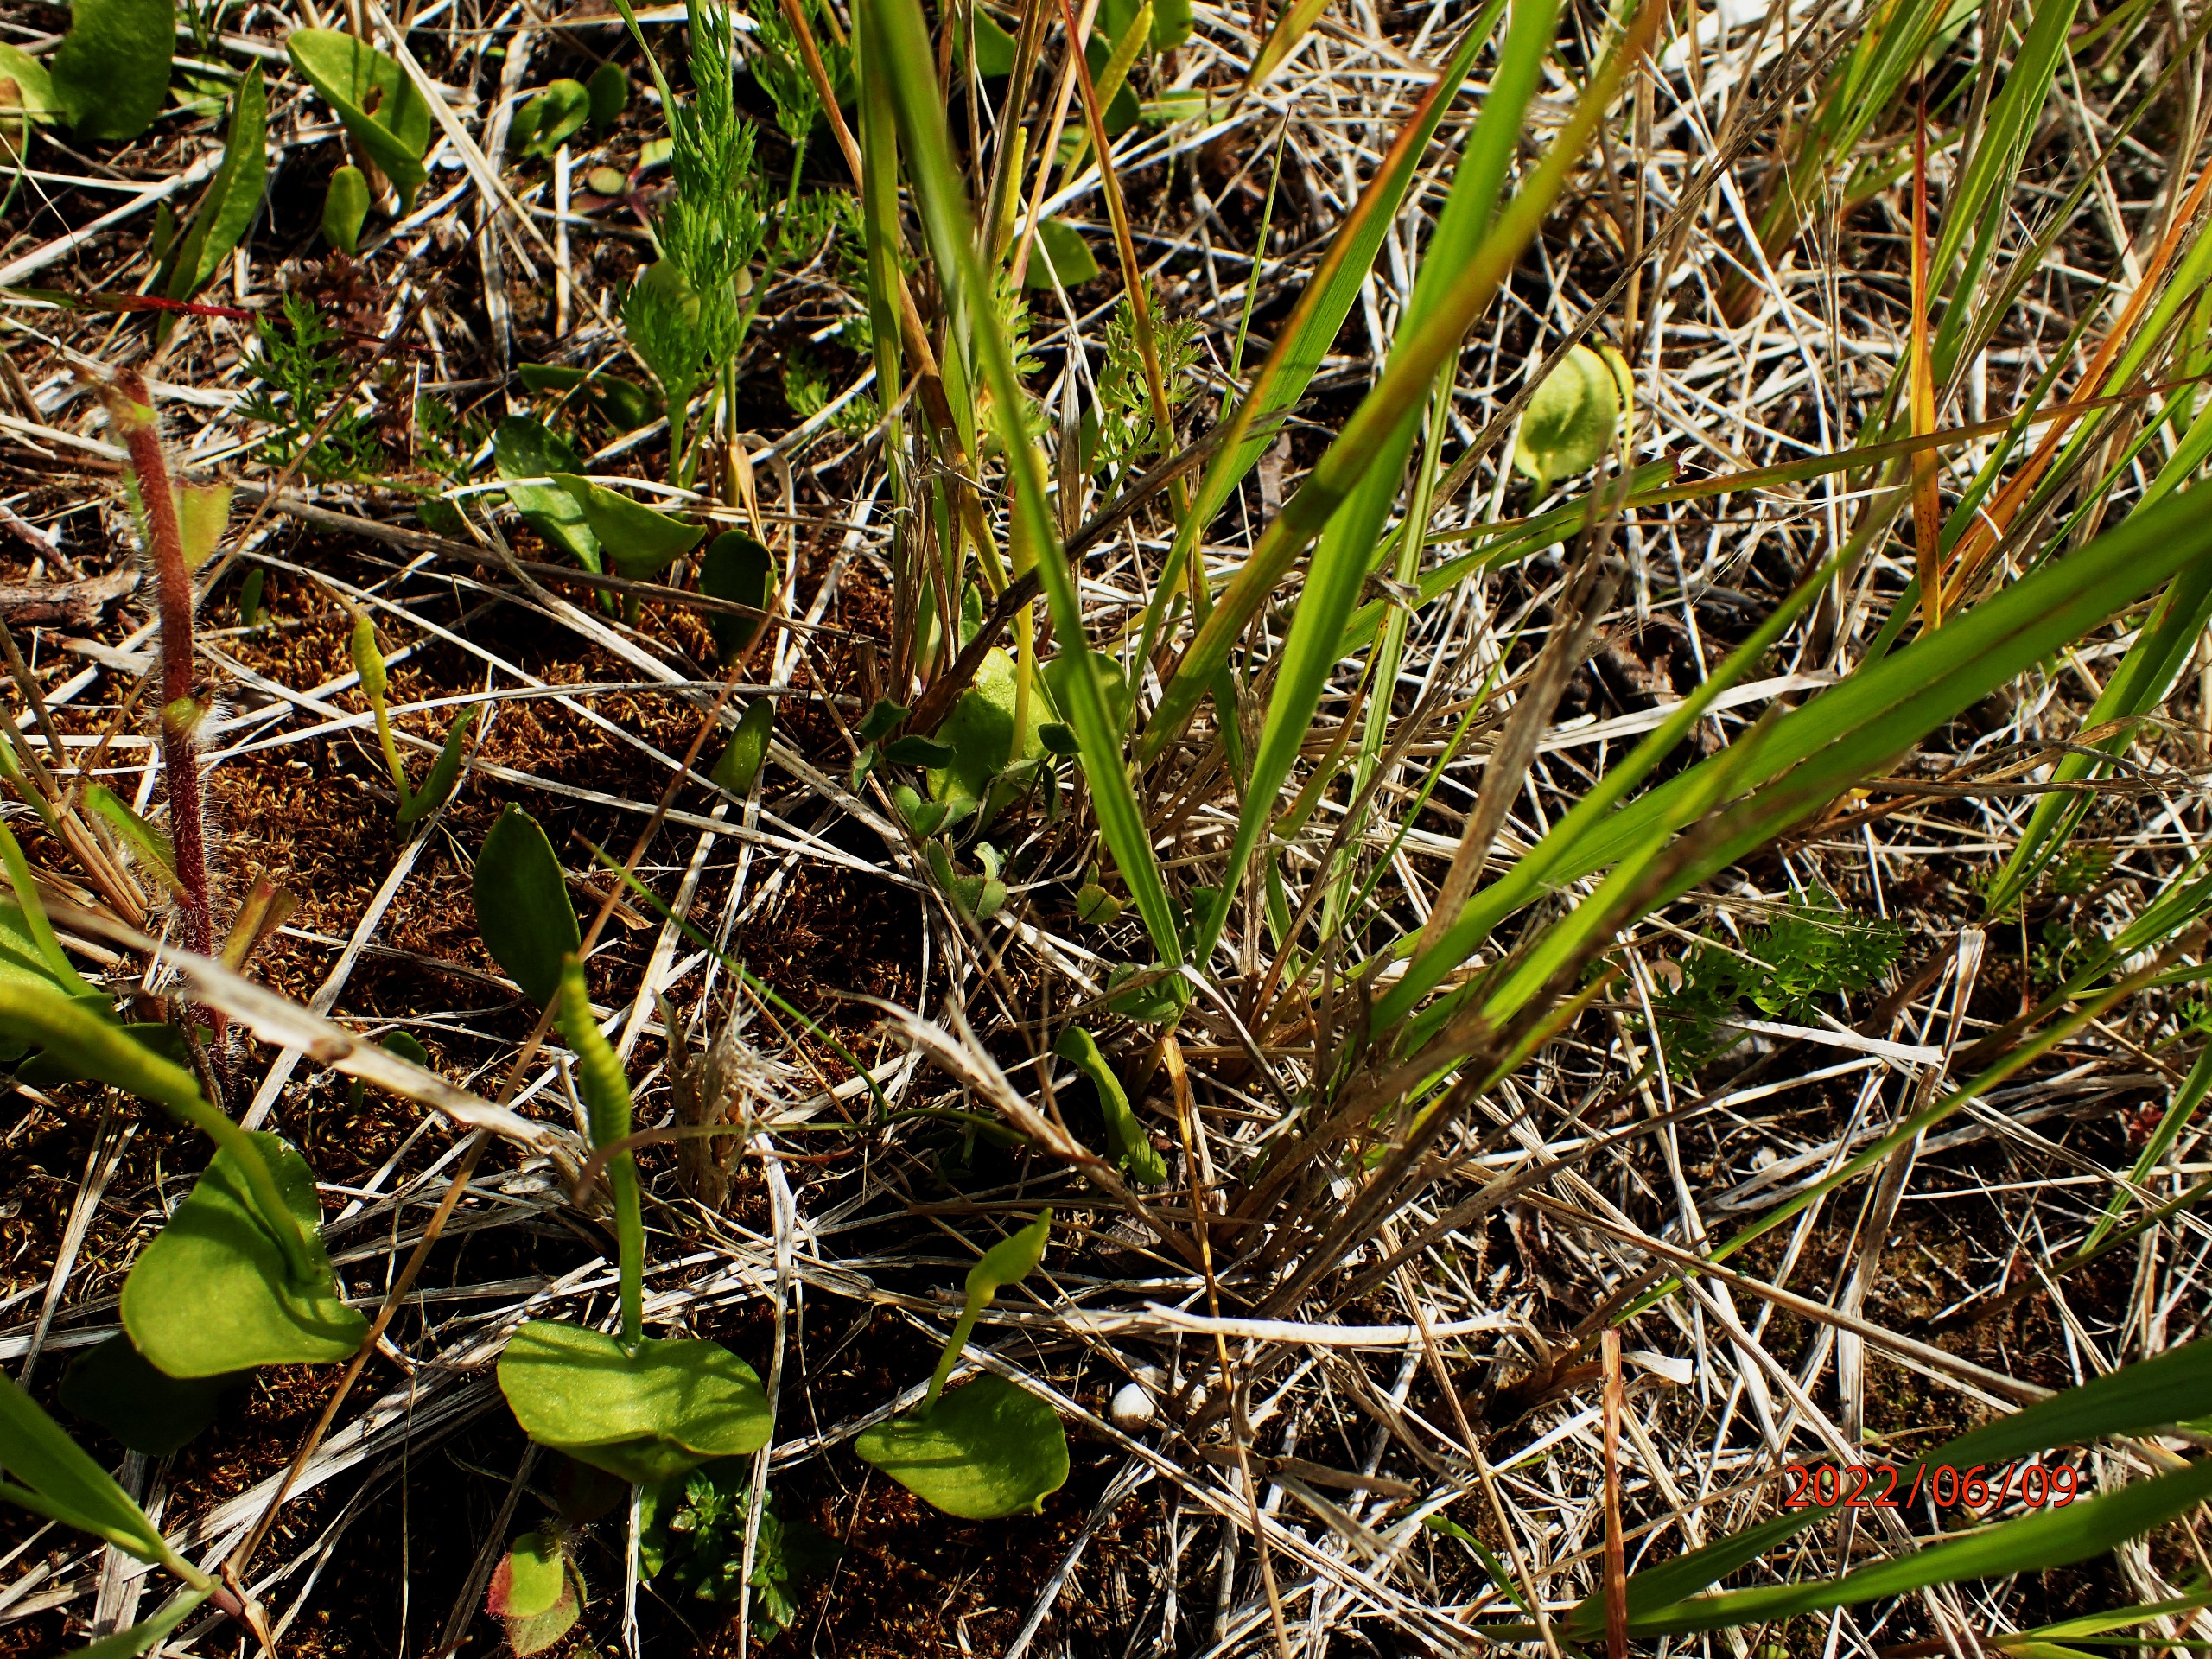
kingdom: Plantae
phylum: Tracheophyta
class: Polypodiopsida
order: Ophioglossales
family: Ophioglossaceae
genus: Ophioglossum
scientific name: Ophioglossum vulgatum
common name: Slangetunge
